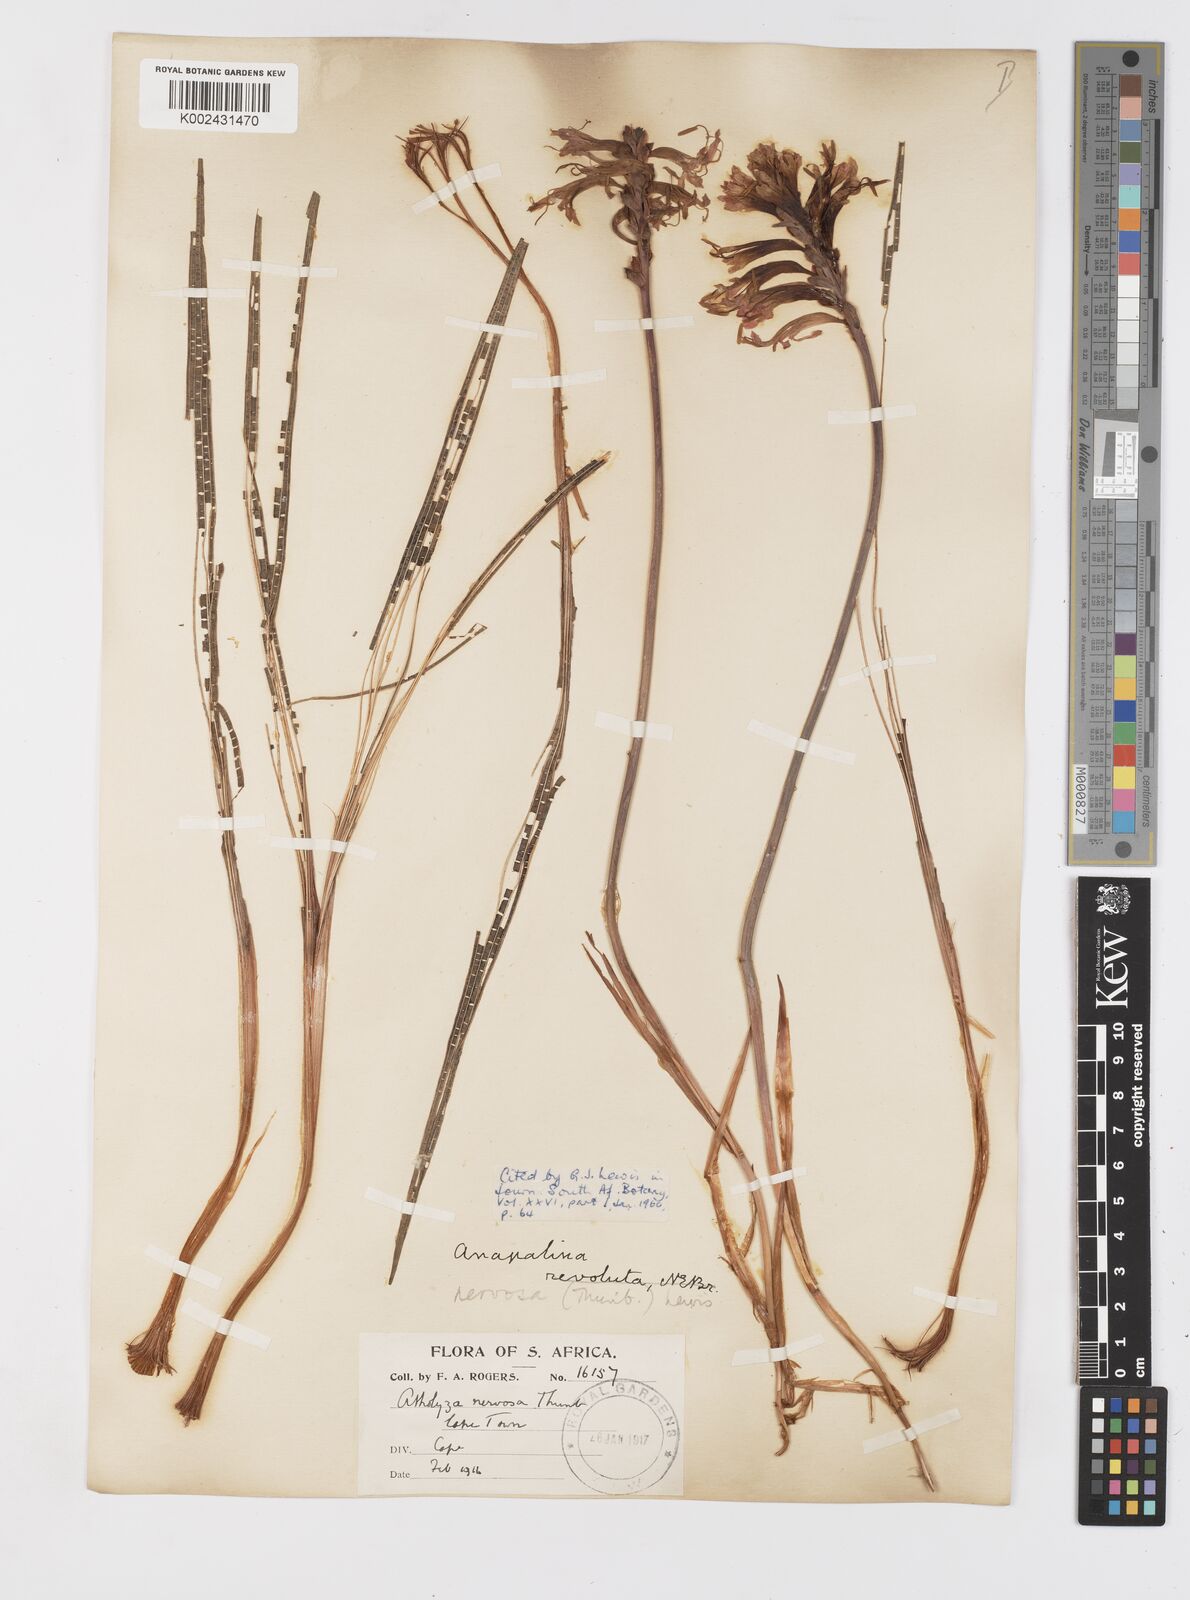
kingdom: Plantae
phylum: Tracheophyta
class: Liliopsida
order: Asparagales
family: Iridaceae
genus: Tritoniopsis
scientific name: Tritoniopsis nervosa
